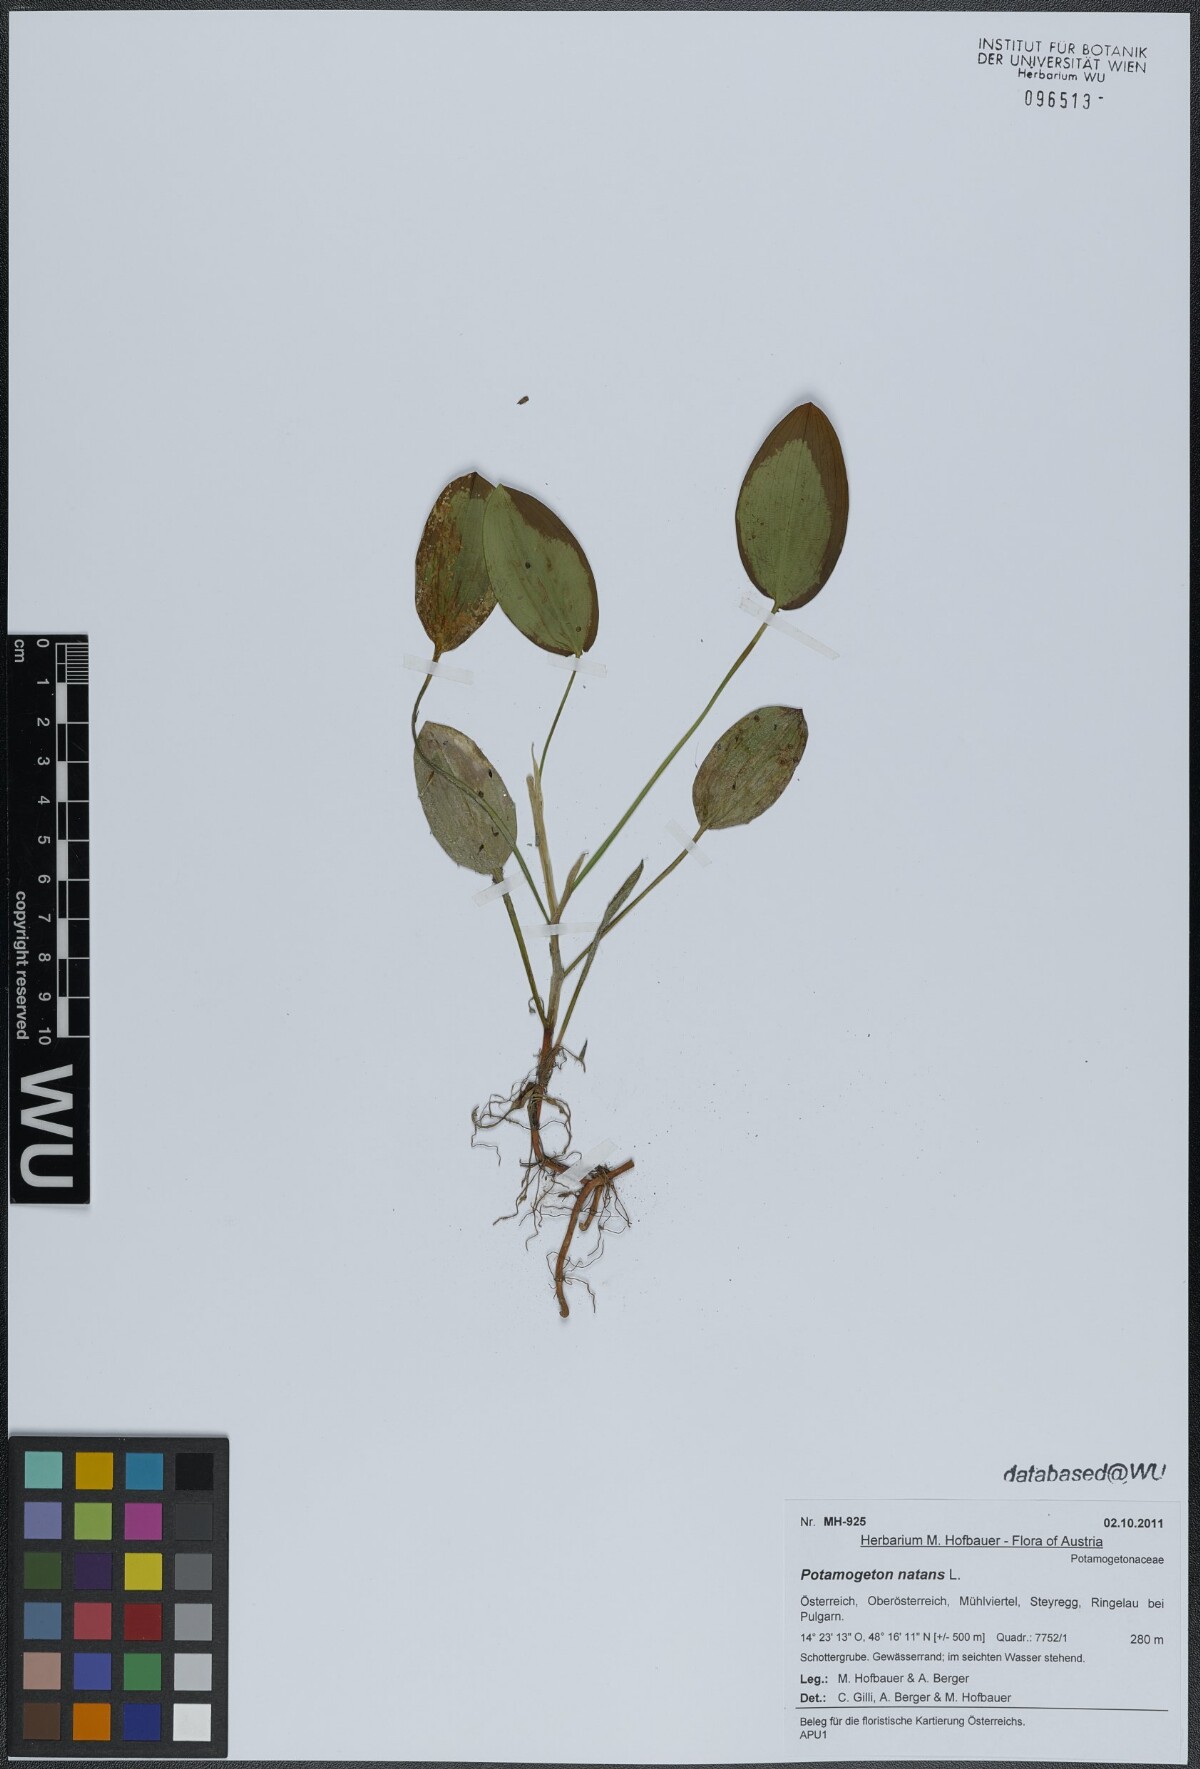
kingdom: Plantae
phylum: Tracheophyta
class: Liliopsida
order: Alismatales
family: Potamogetonaceae
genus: Potamogeton
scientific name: Potamogeton natans
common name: Broad-leaved pondweed
